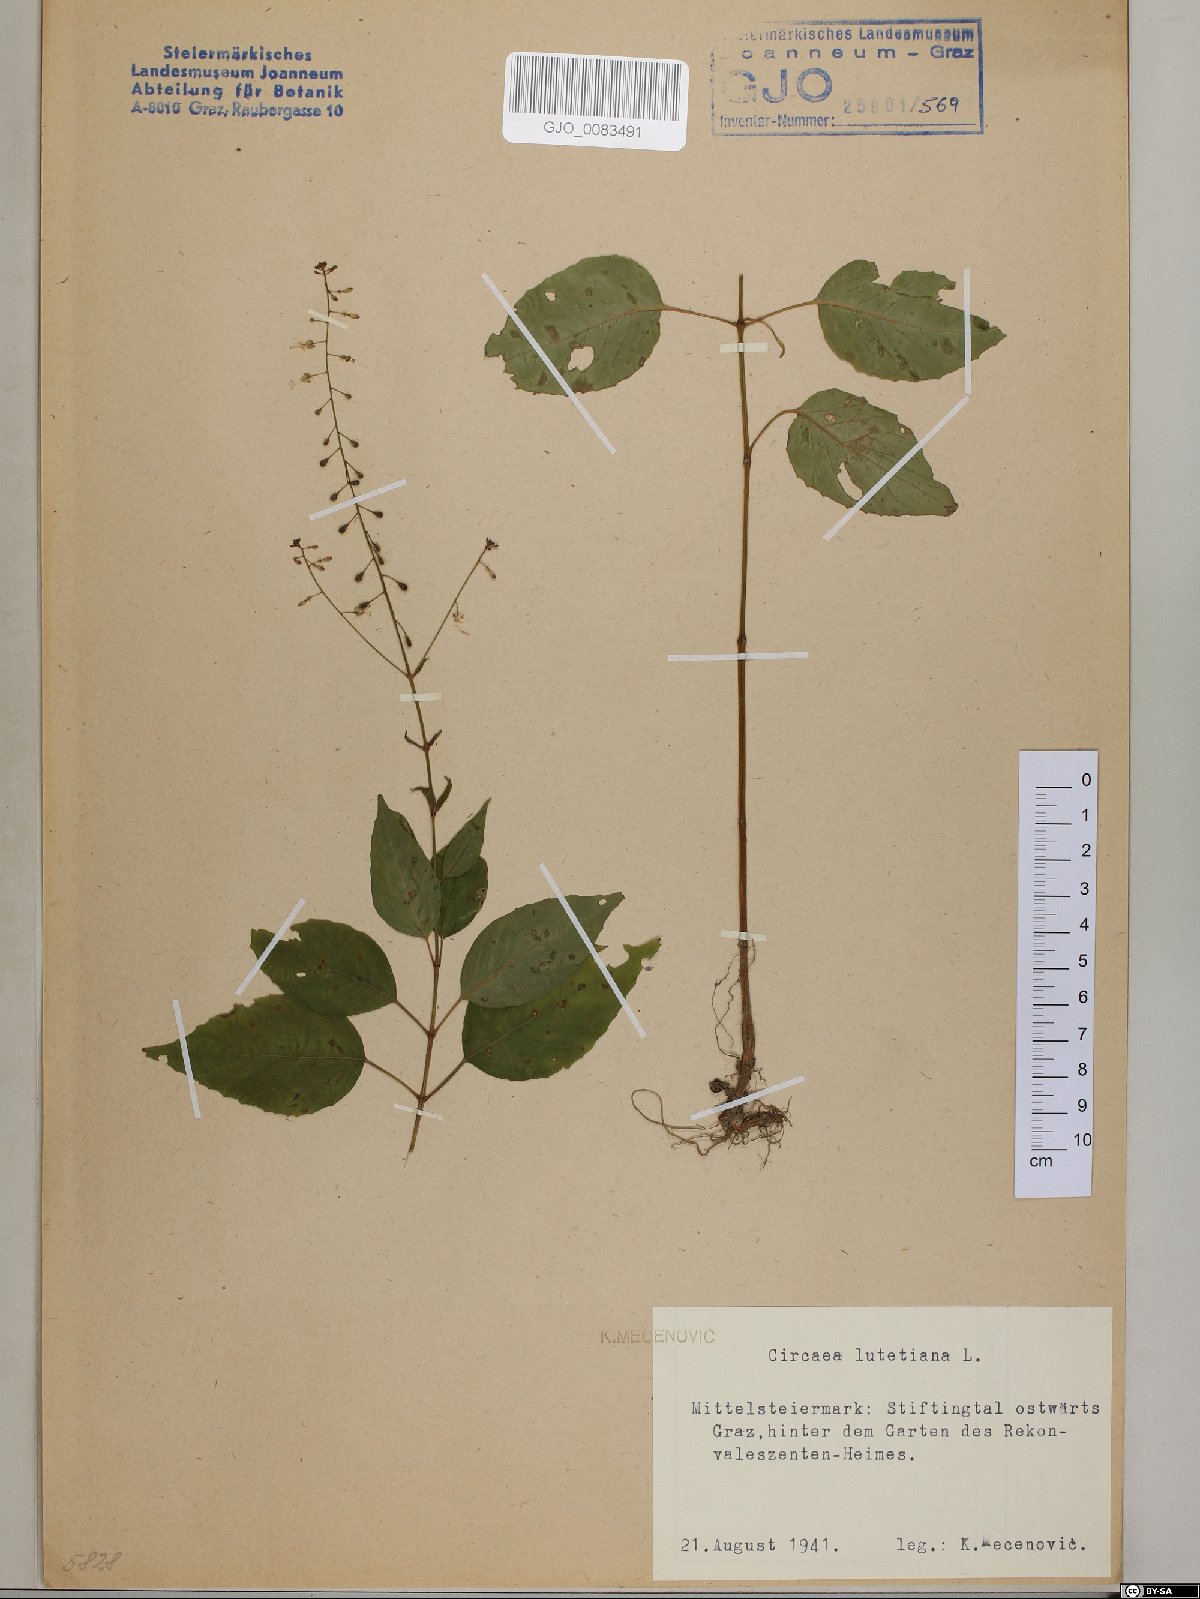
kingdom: Plantae
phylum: Tracheophyta
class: Magnoliopsida
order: Myrtales
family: Onagraceae
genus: Circaea
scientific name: Circaea lutetiana
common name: Enchanter's-nightshade
